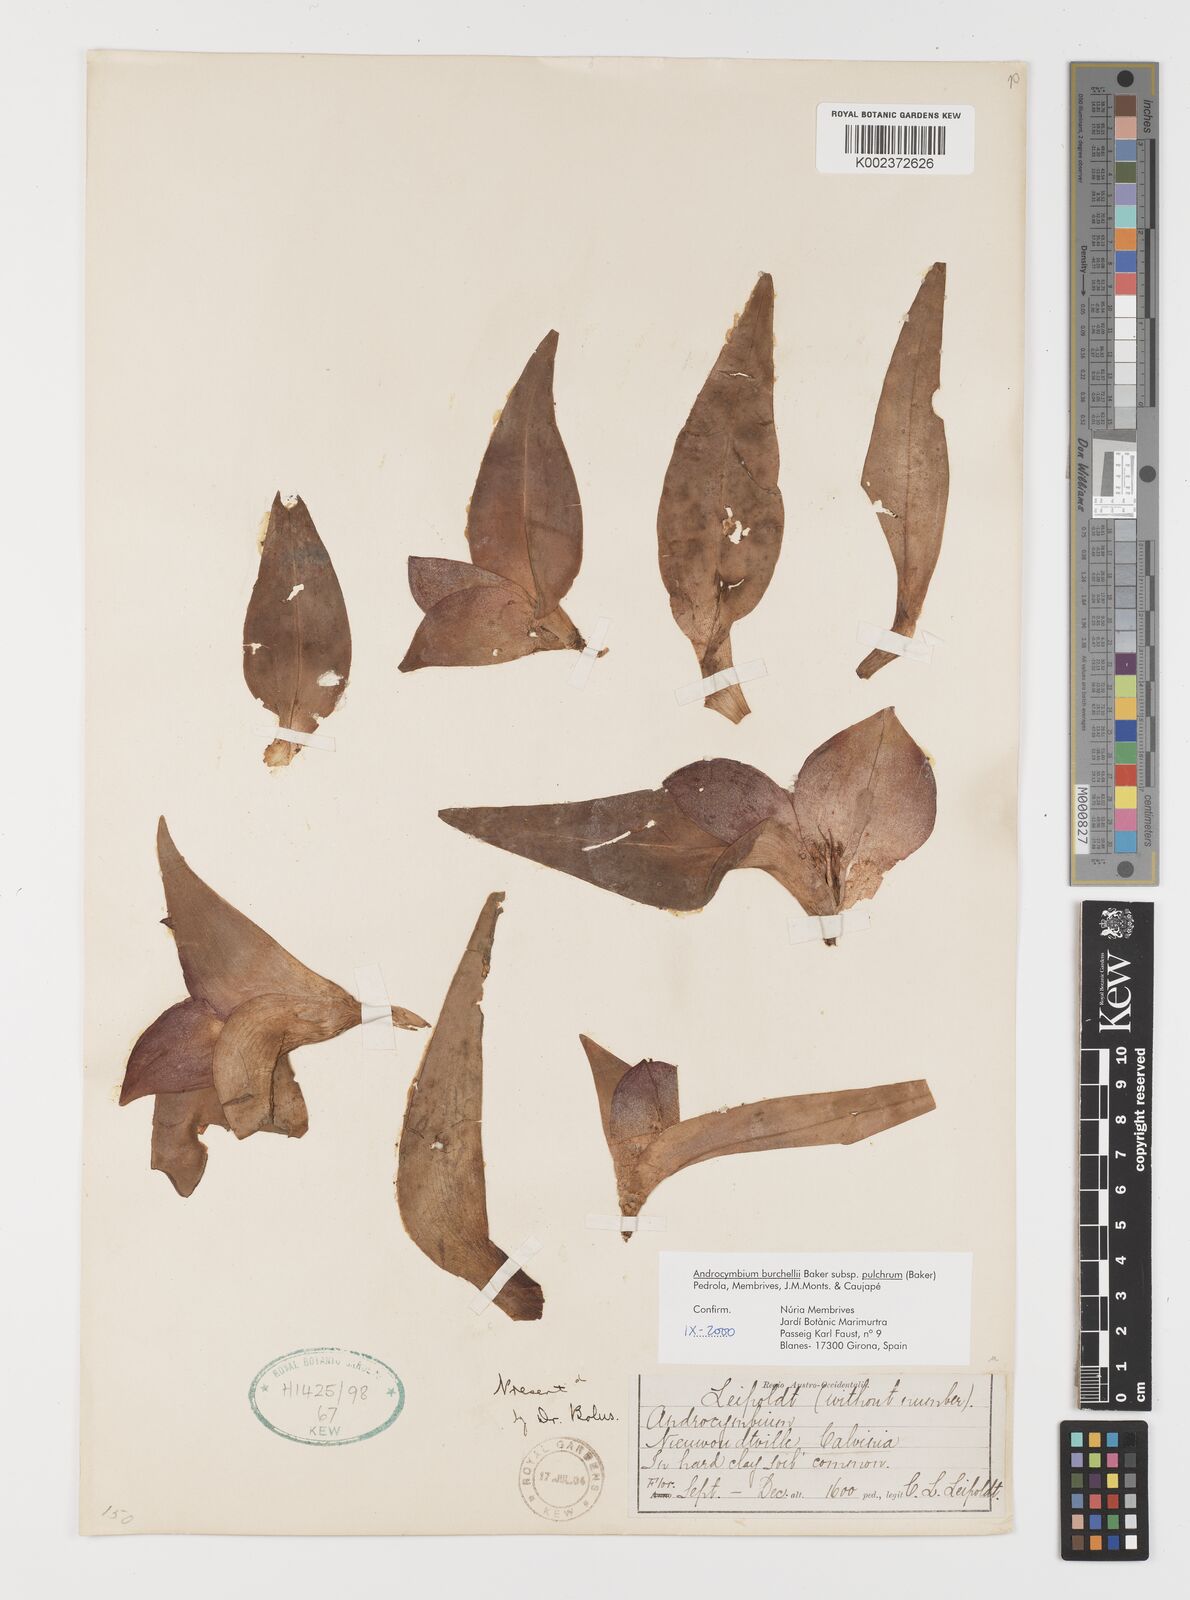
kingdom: Plantae
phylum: Tracheophyta
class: Liliopsida
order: Liliales
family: Colchicaceae
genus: Colchicum
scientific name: Colchicum burchellii
